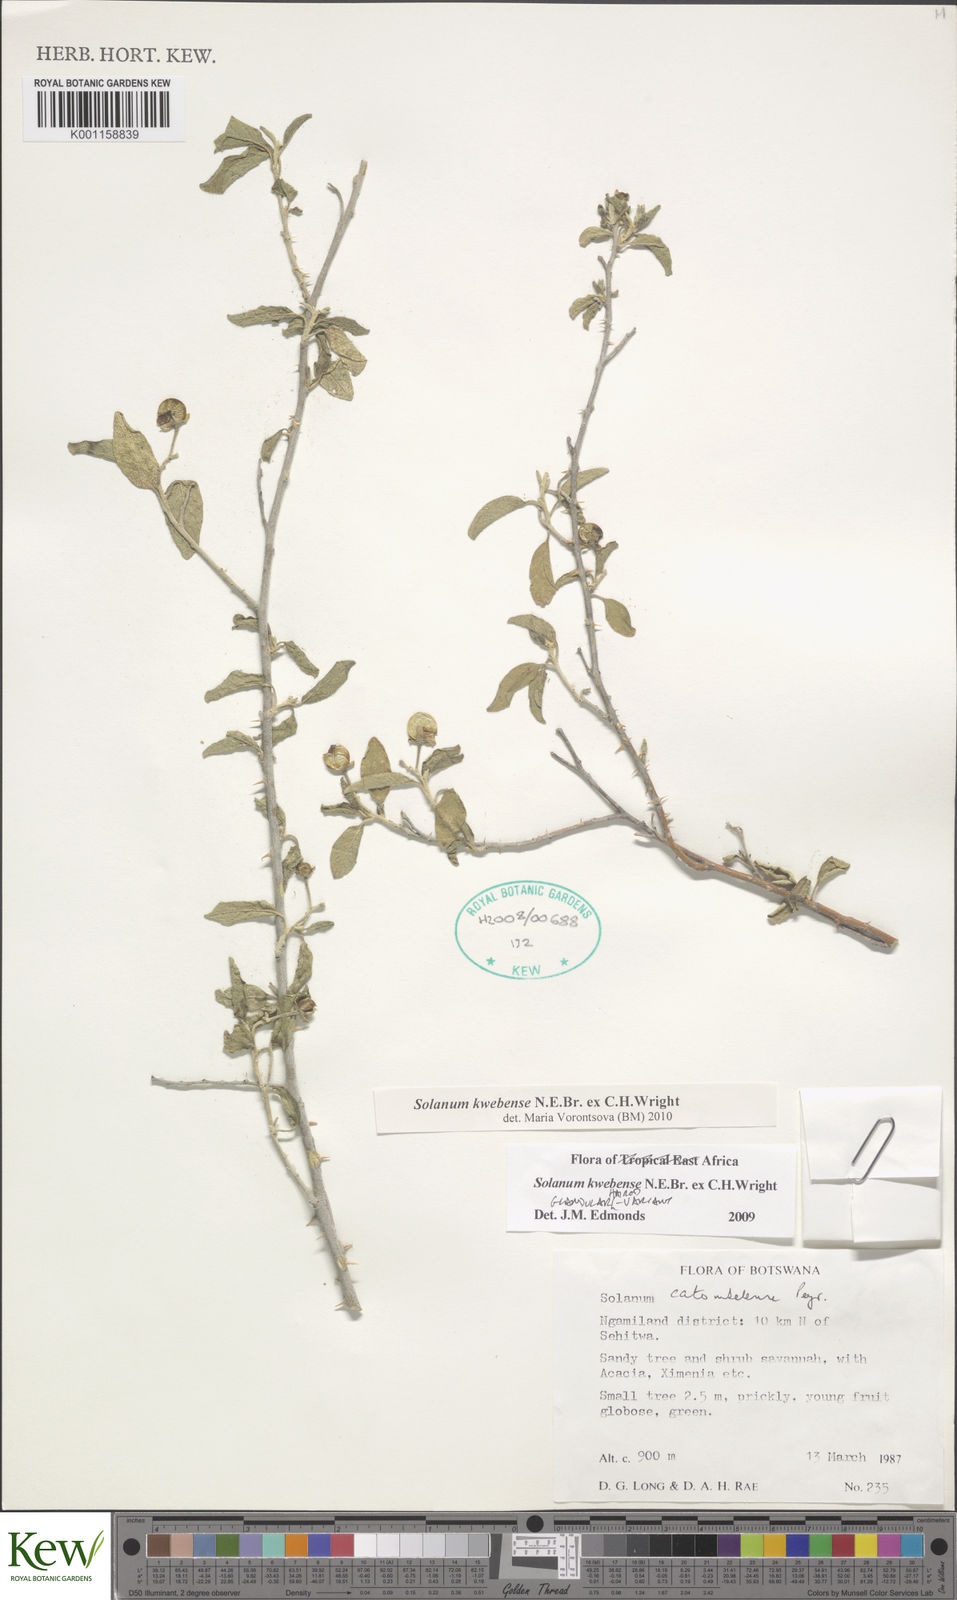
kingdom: Plantae
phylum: Tracheophyta
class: Magnoliopsida
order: Solanales
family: Solanaceae
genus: Solanum
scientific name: Solanum tettense
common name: Mozambique bitter apple
